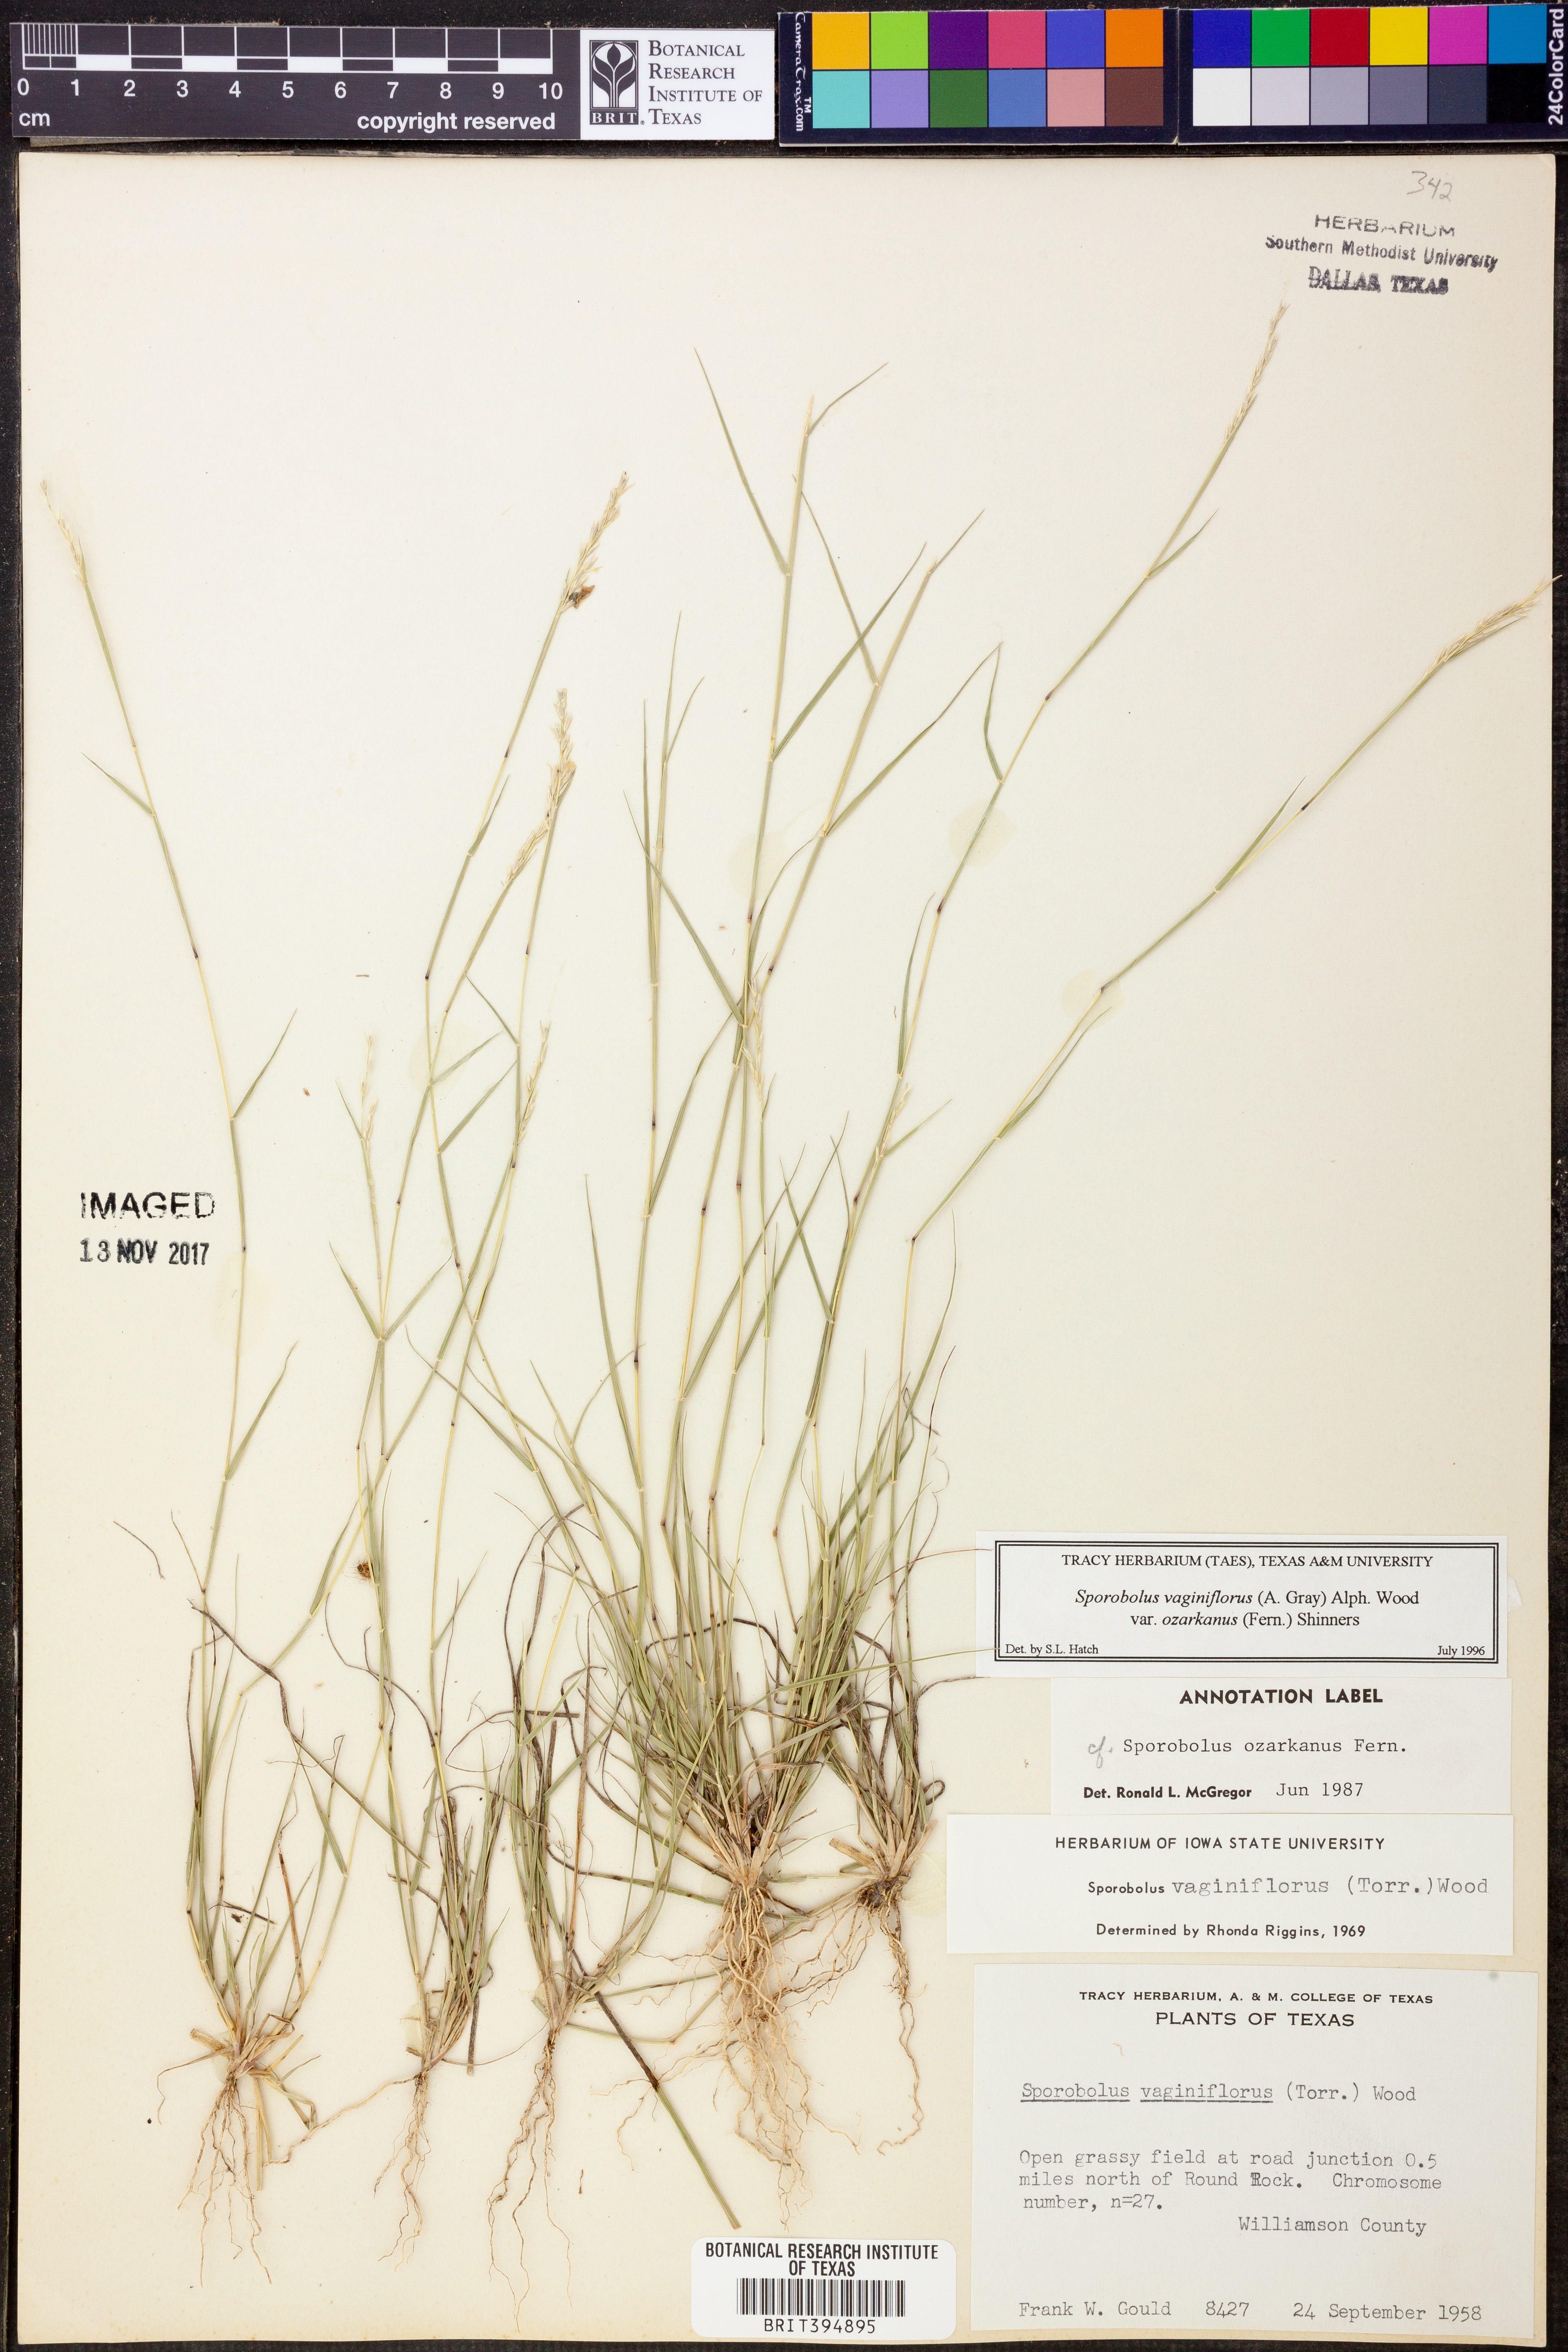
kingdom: Plantae
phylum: Tracheophyta
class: Liliopsida
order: Poales
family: Poaceae
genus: Sporobolus
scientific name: Sporobolus neglectus
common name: Annual dropseed
